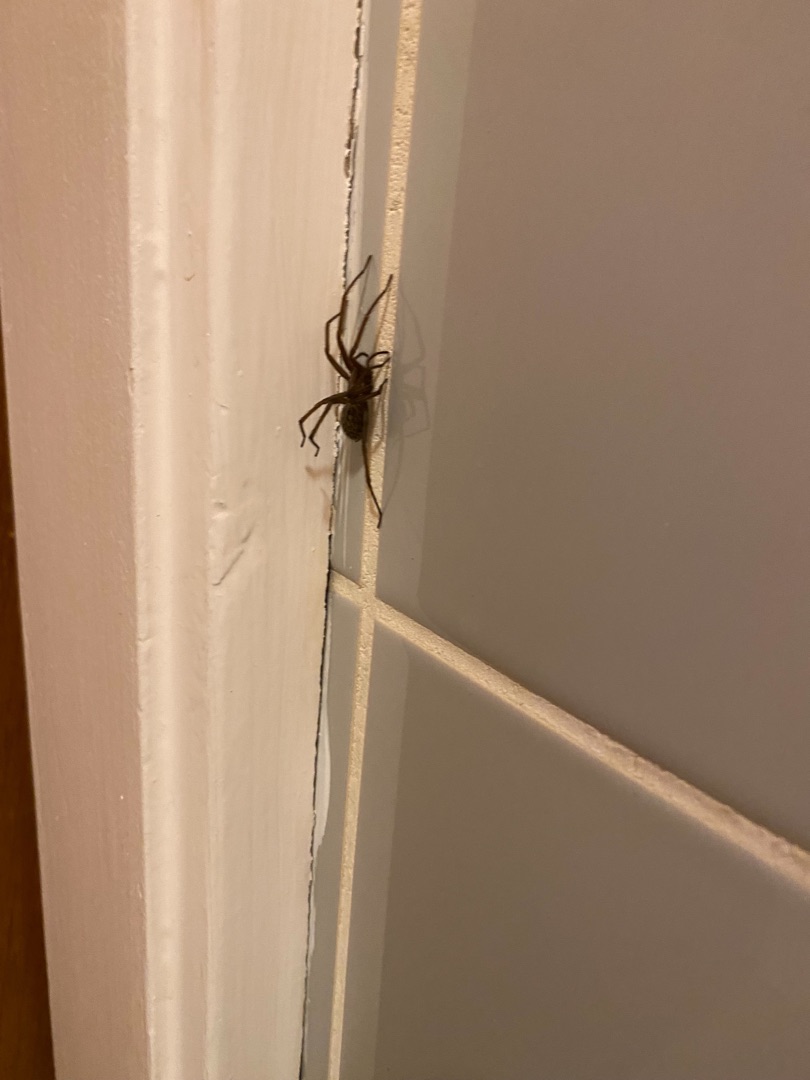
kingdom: Animalia
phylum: Arthropoda
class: Arachnida
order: Araneae
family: Agelenidae
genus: Eratigena
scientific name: Eratigena atrica
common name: Stor husedderkop
